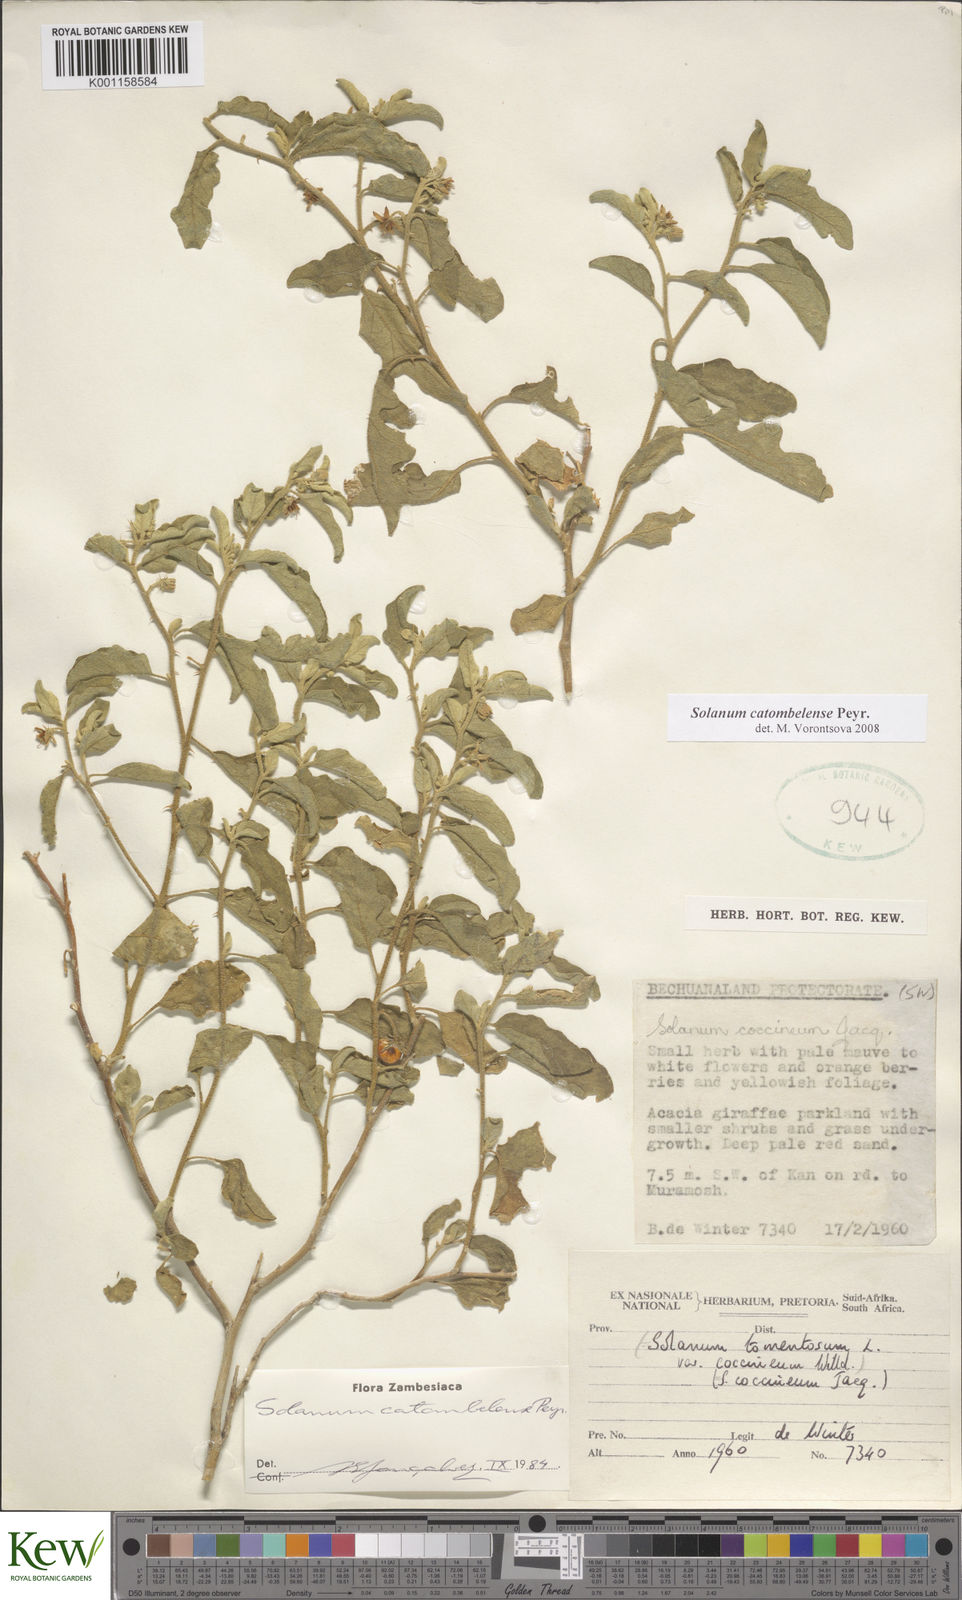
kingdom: Plantae
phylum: Tracheophyta
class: Magnoliopsida
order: Solanales
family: Solanaceae
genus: Solanum
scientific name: Solanum catombelense
